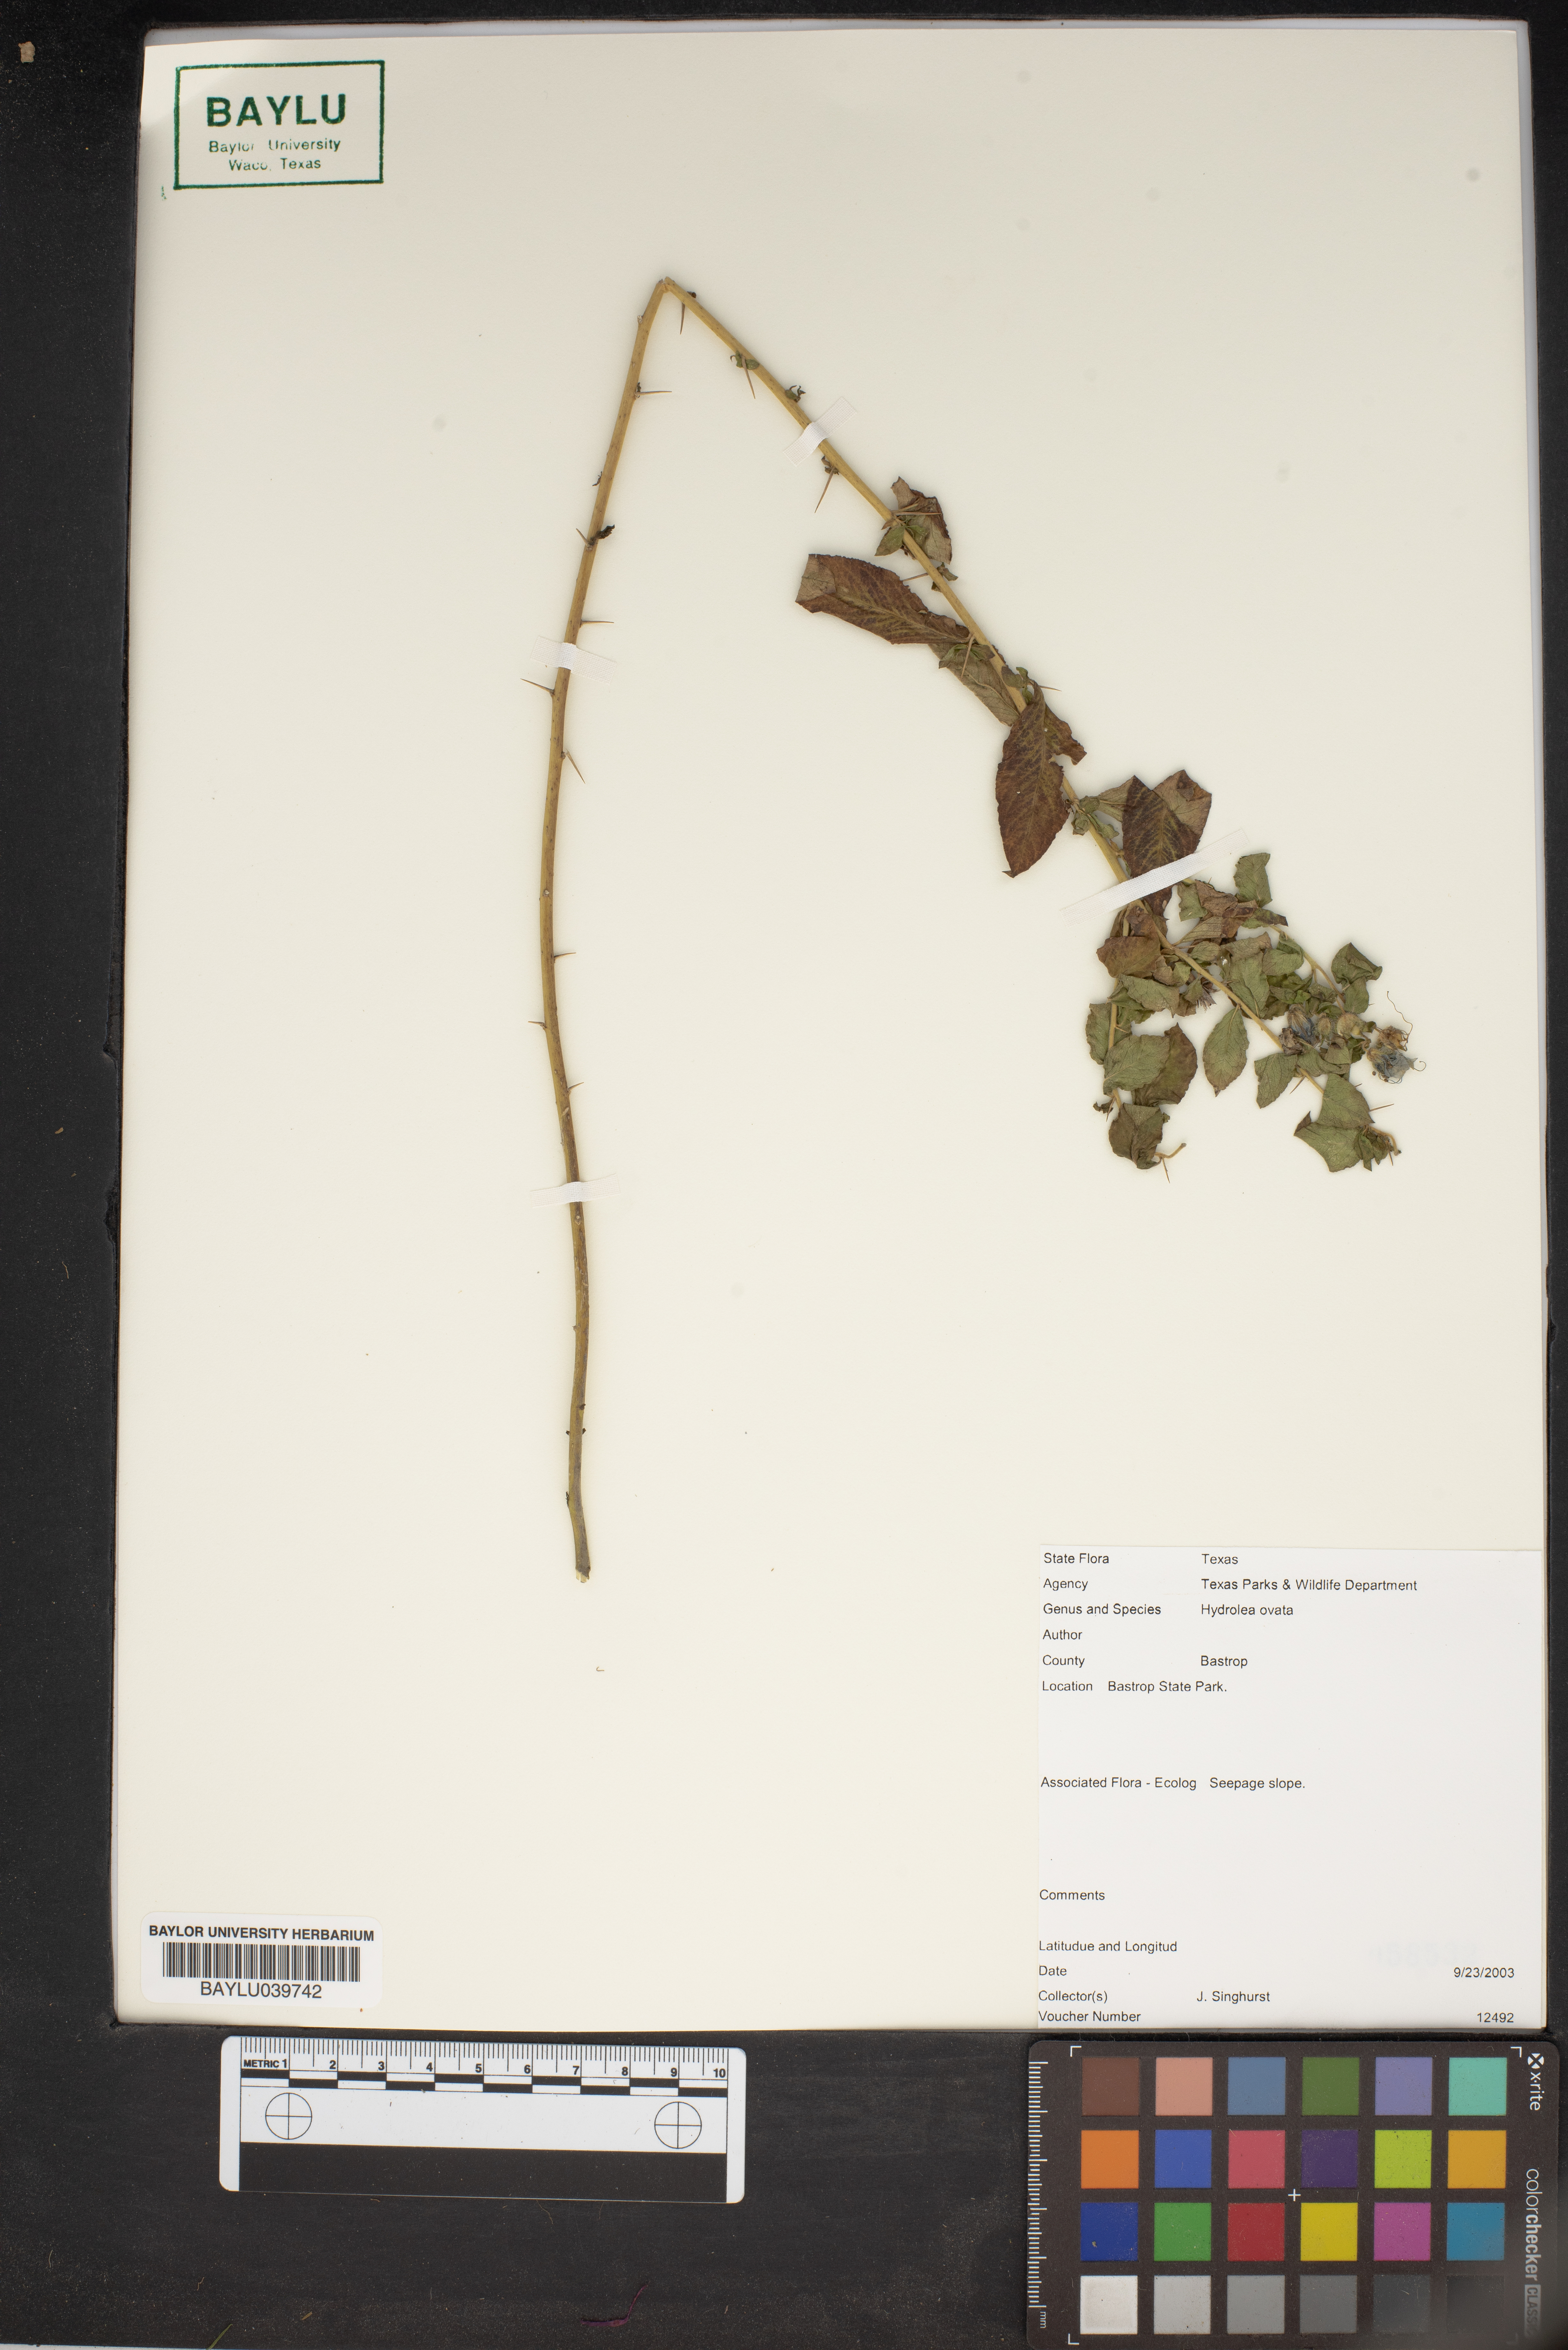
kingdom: Plantae
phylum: Tracheophyta
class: Magnoliopsida
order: Solanales
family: Hydroleaceae
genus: Hydrolea
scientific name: Hydrolea ovata
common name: Ovate false fiddleleaf
